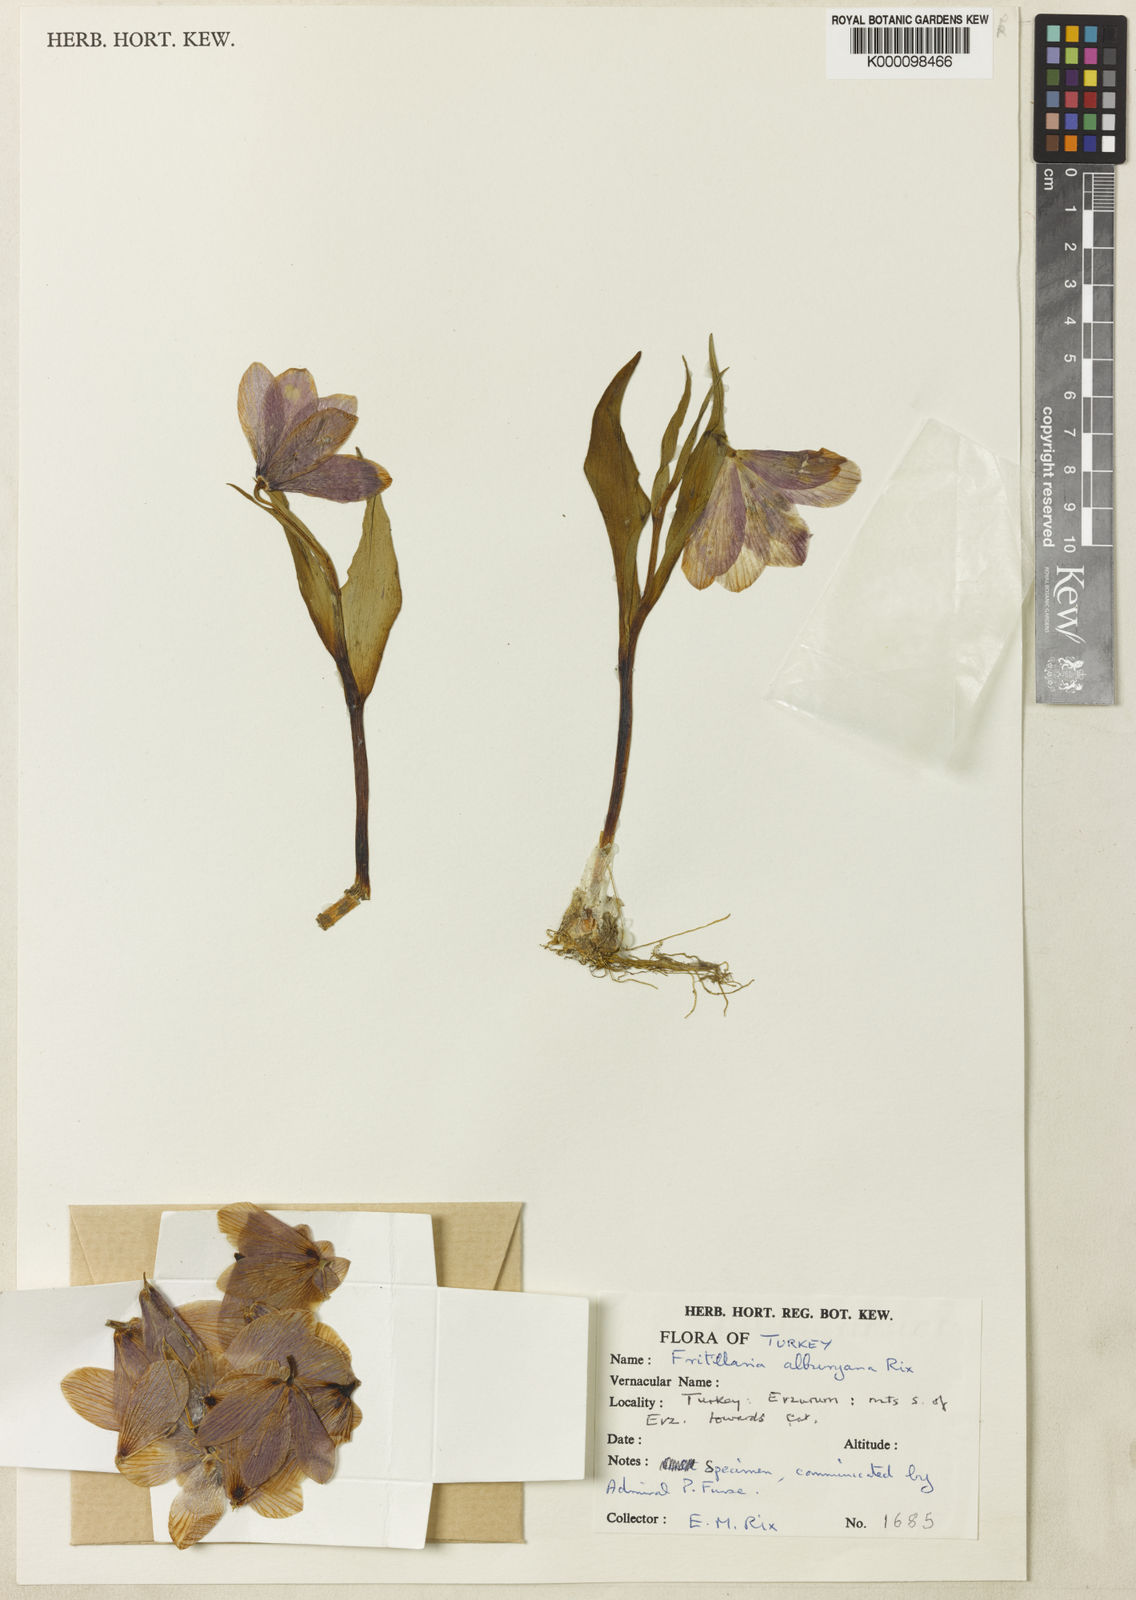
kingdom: Plantae
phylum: Tracheophyta
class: Liliopsida
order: Liliales
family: Liliaceae
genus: Fritillaria
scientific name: Fritillaria alburyana
